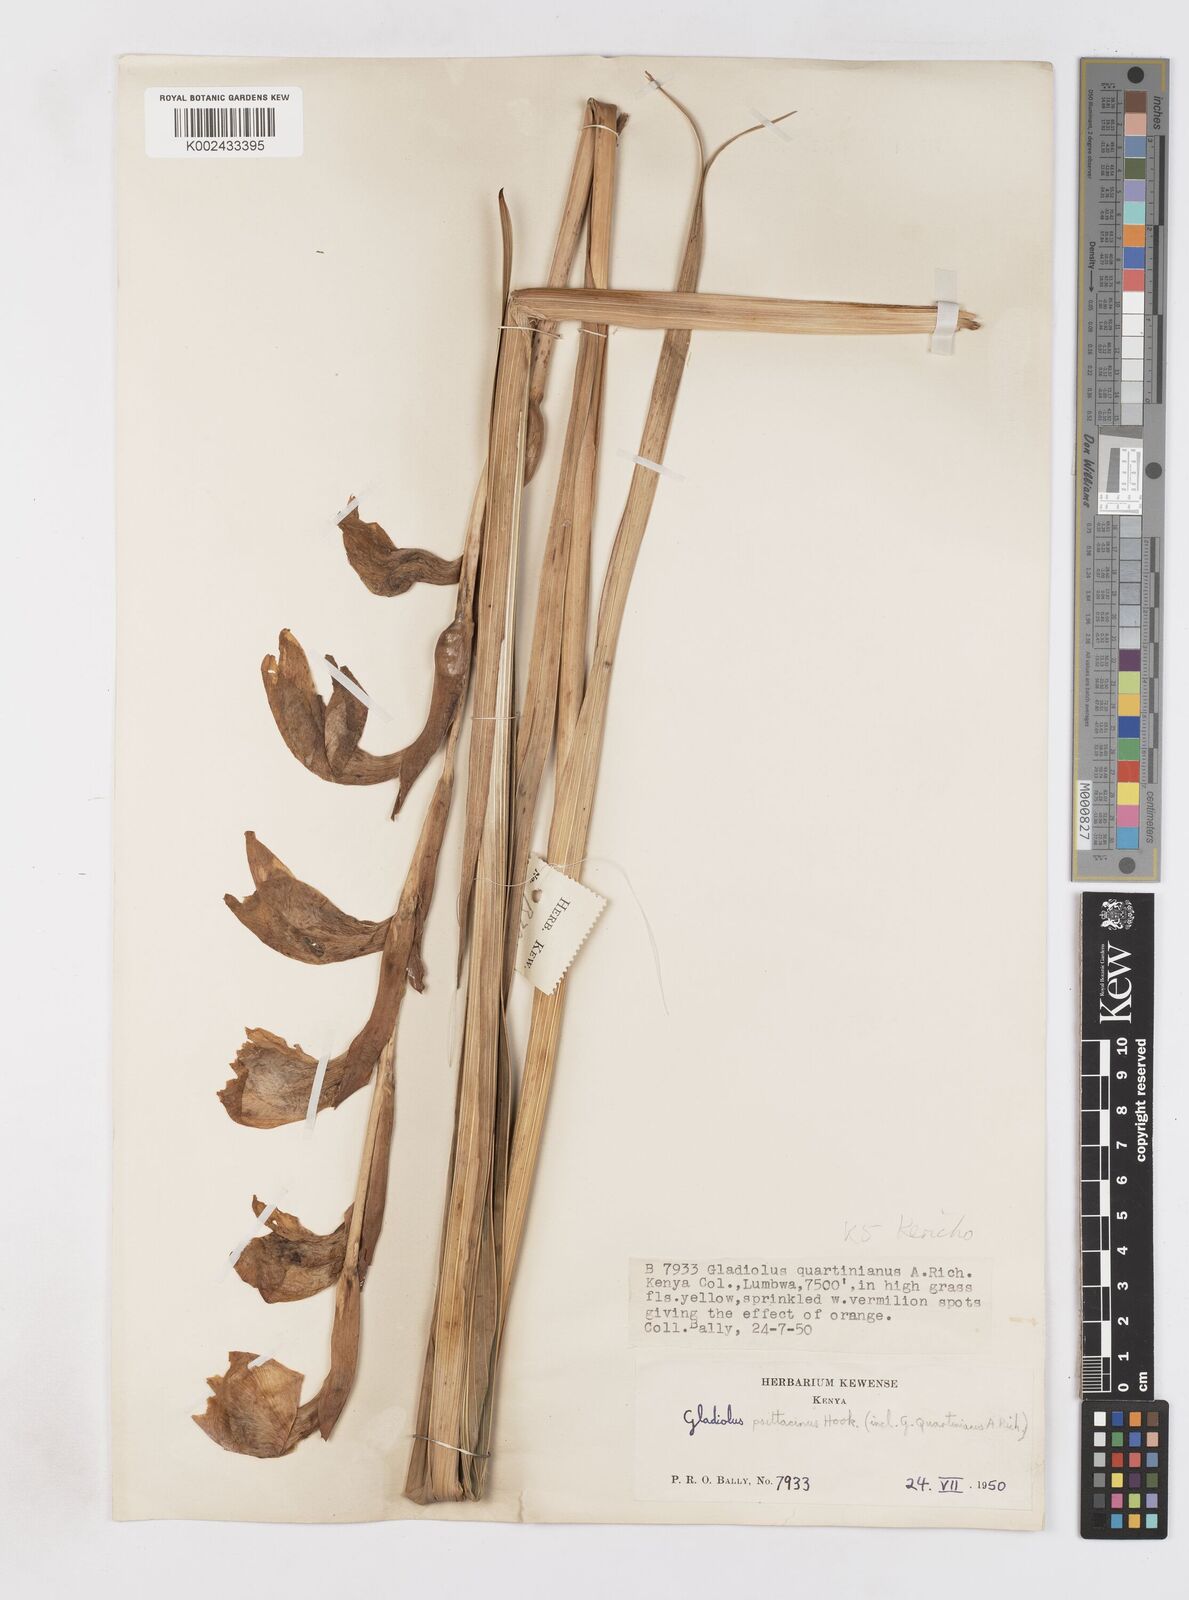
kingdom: Plantae
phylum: Tracheophyta
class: Liliopsida
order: Asparagales
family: Iridaceae
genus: Gladiolus
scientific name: Gladiolus dalenii
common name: Cornflag
